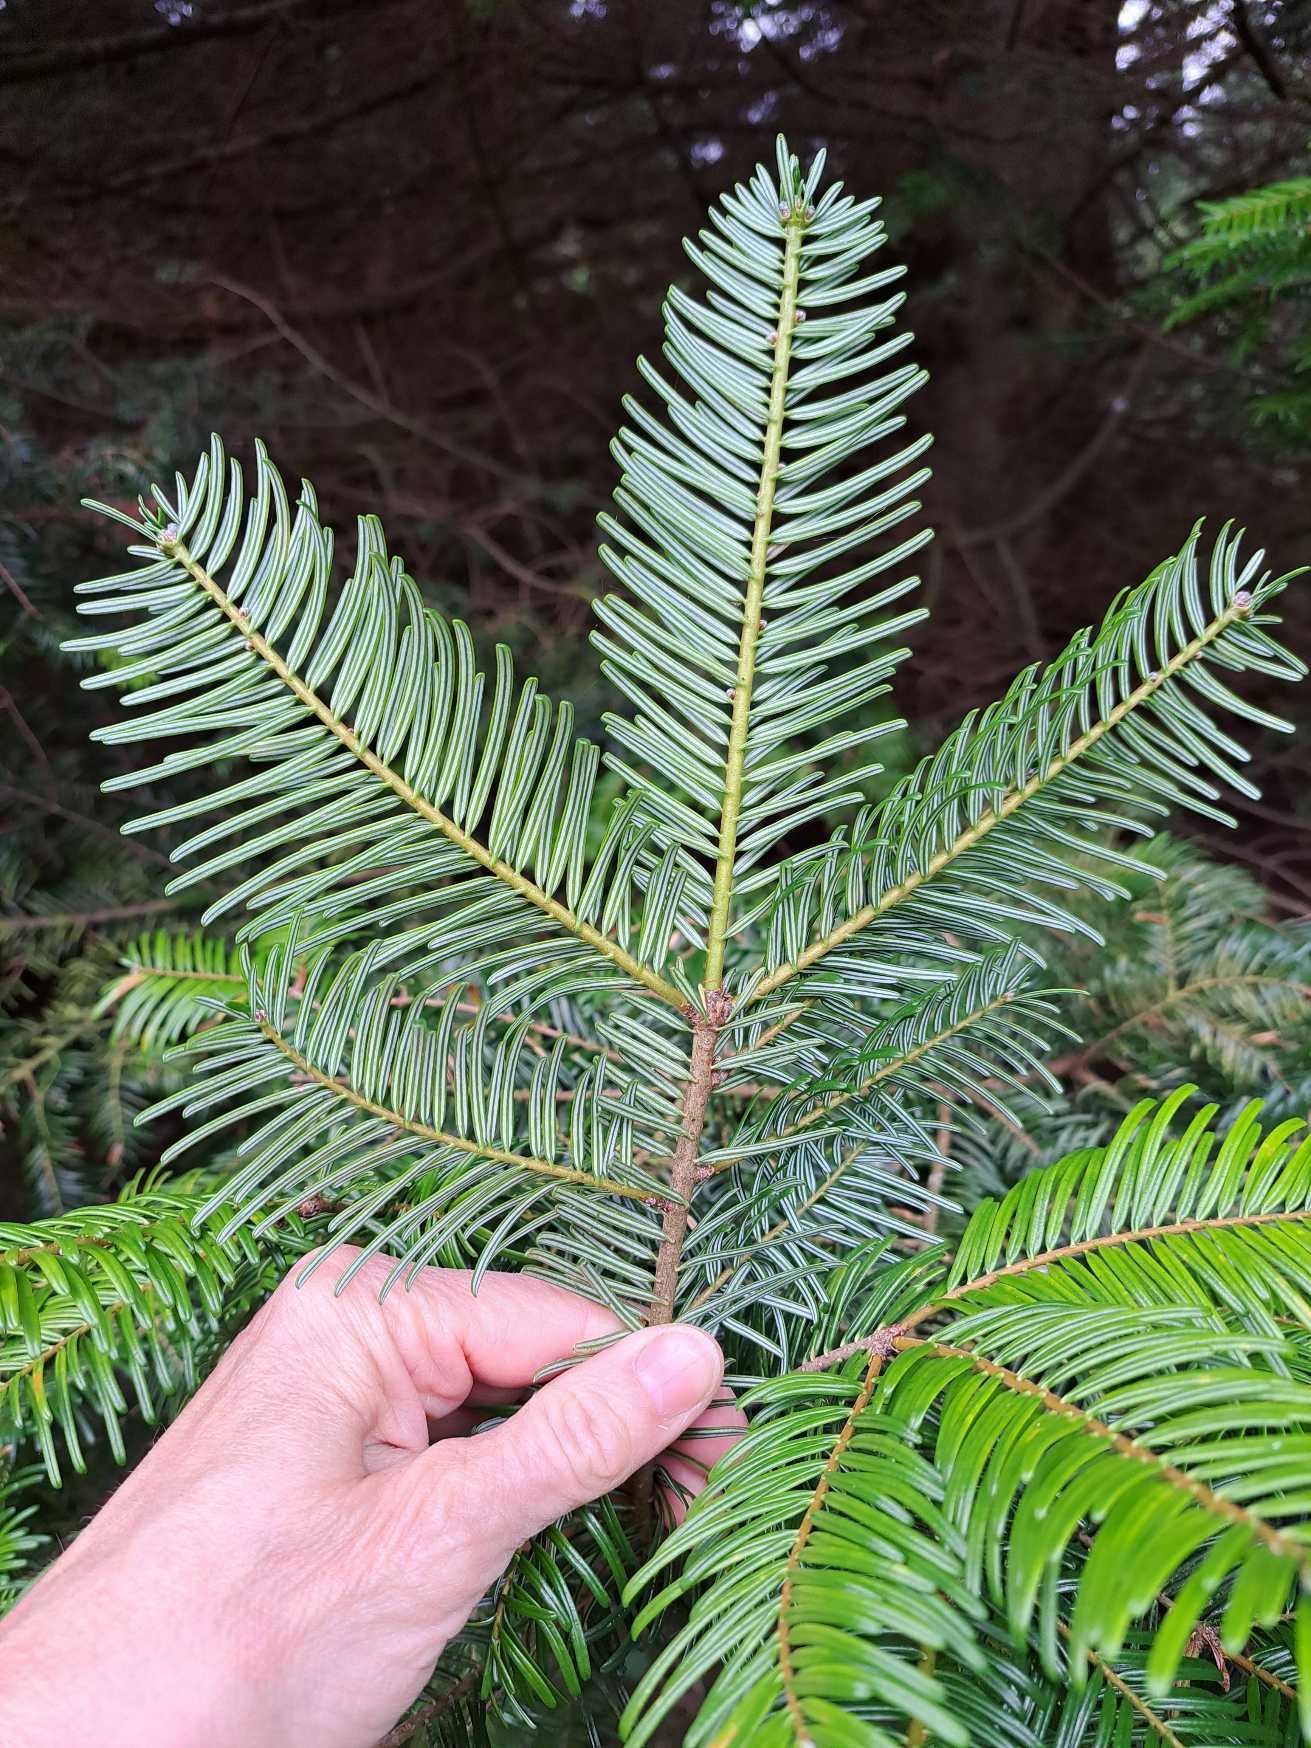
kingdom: Plantae
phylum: Tracheophyta
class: Pinopsida
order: Pinales
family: Pinaceae
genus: Abies
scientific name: Abies grandis
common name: Kæmpegran
